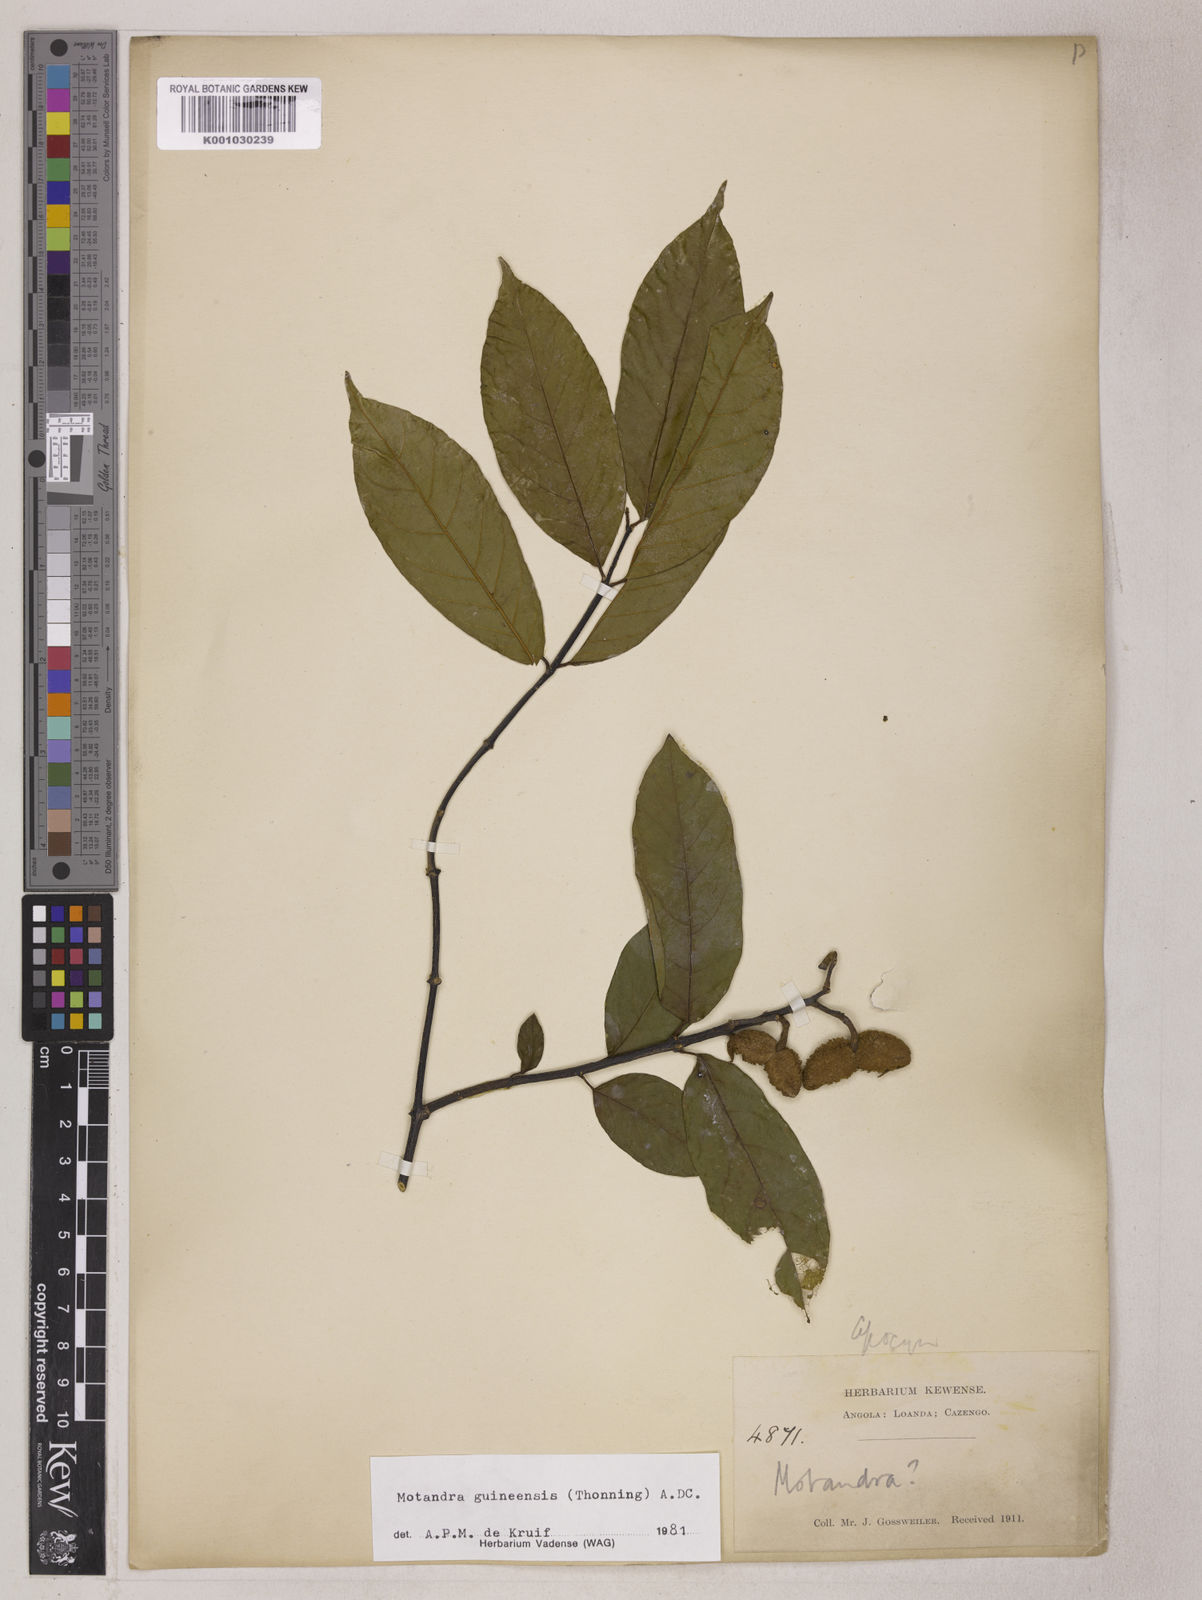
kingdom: Plantae
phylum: Tracheophyta
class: Magnoliopsida
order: Gentianales
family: Apocynaceae
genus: Motandra
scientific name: Motandra paniculata
